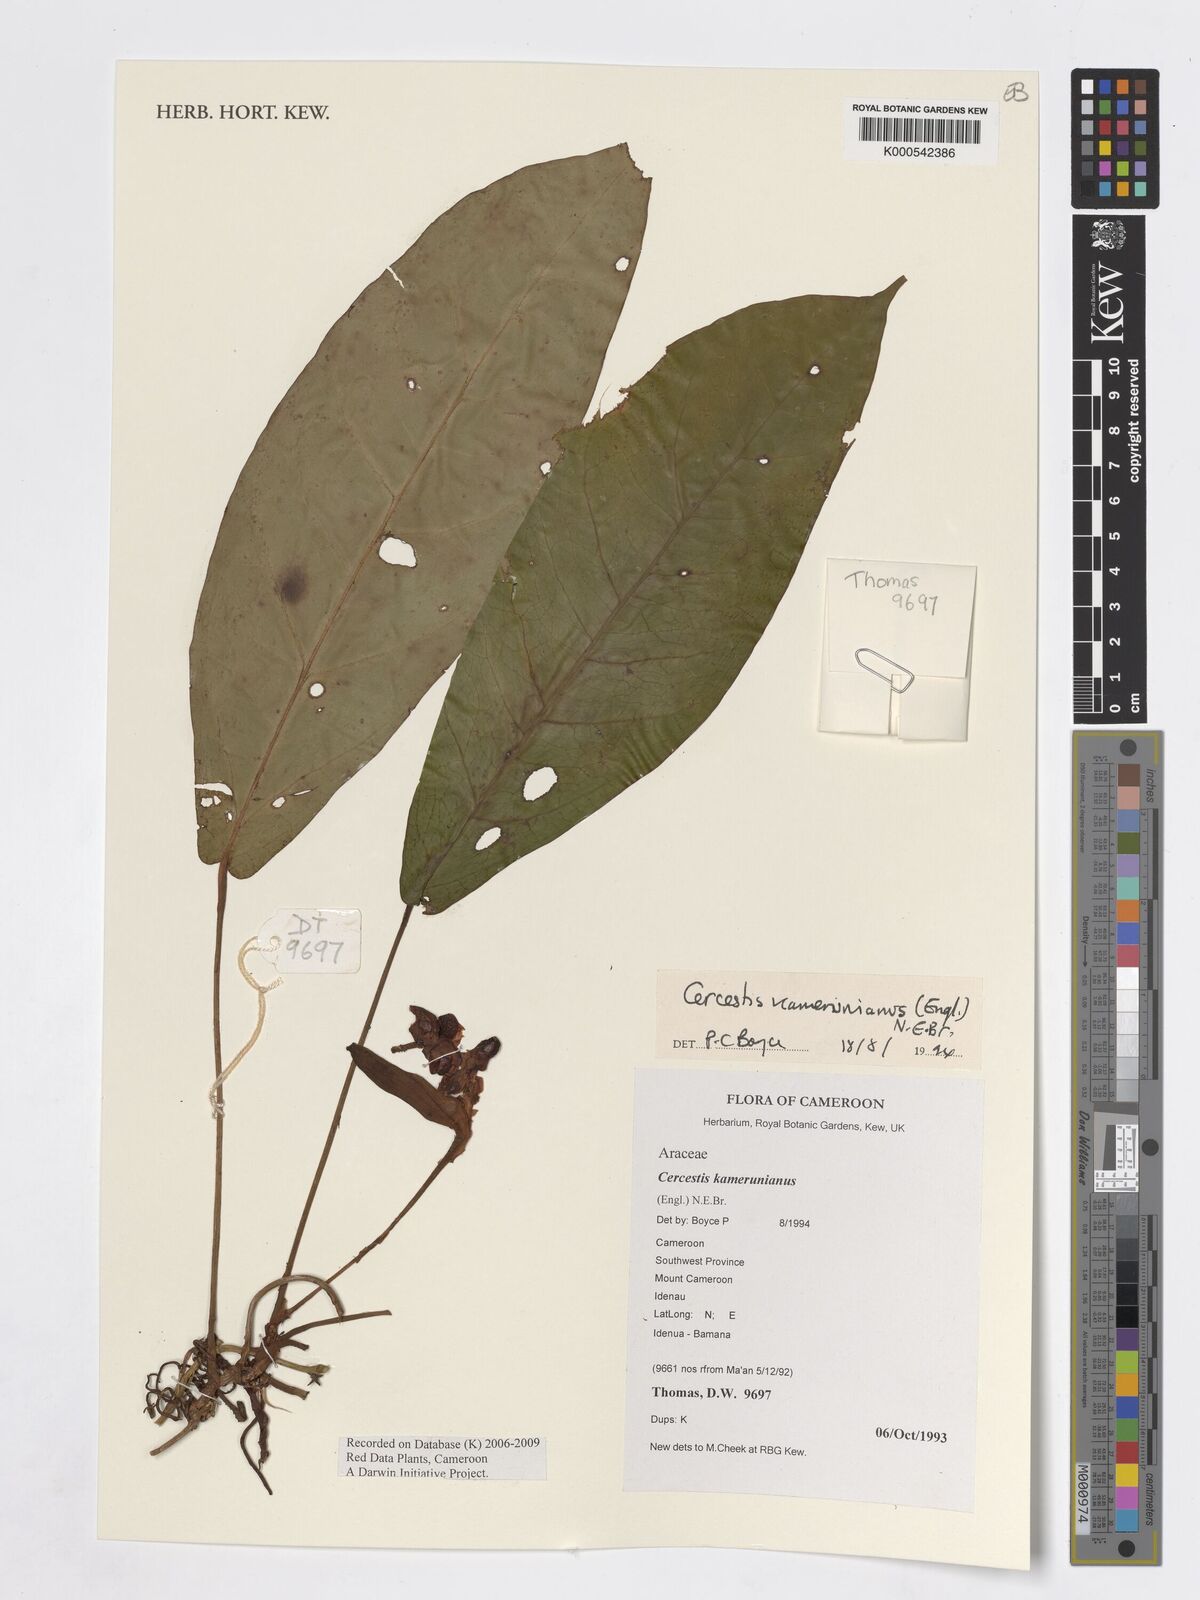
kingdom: Plantae
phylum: Tracheophyta
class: Liliopsida
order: Alismatales
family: Araceae
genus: Cercestis
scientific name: Cercestis kamerunianus
